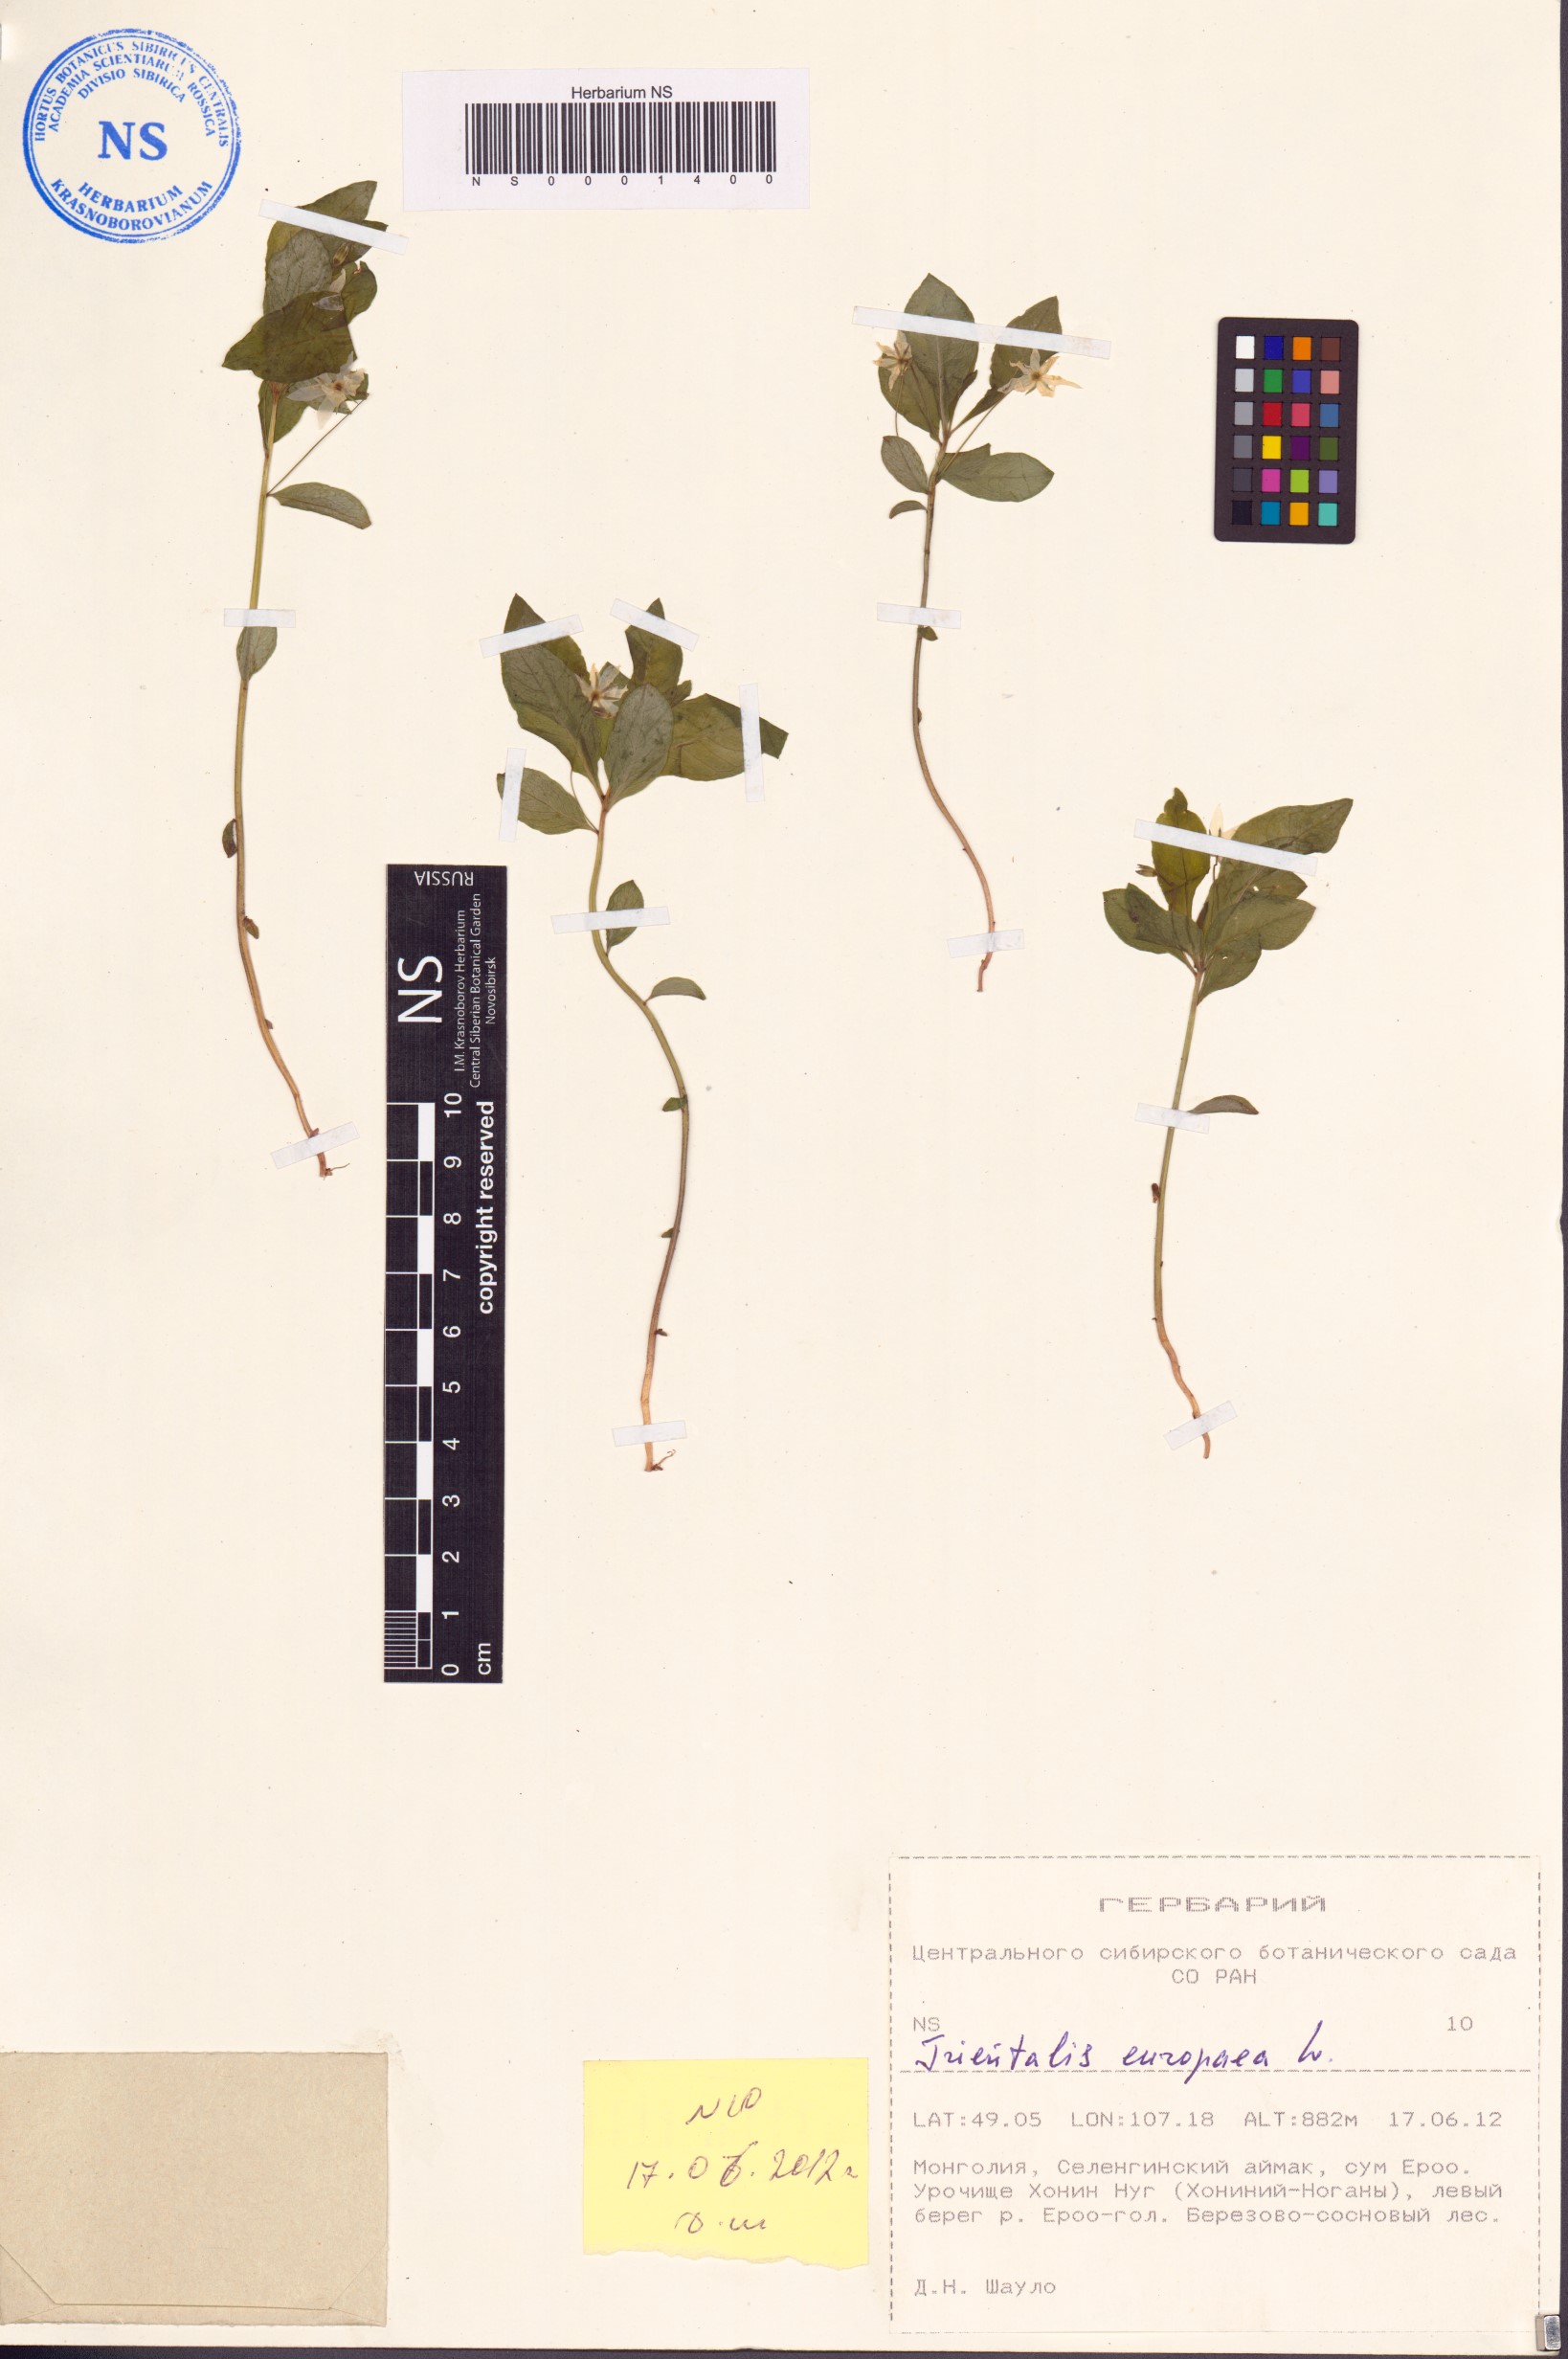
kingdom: Plantae
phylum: Tracheophyta
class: Magnoliopsida
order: Ericales
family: Primulaceae
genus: Lysimachia
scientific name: Lysimachia europaea
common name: Arctic starflower
